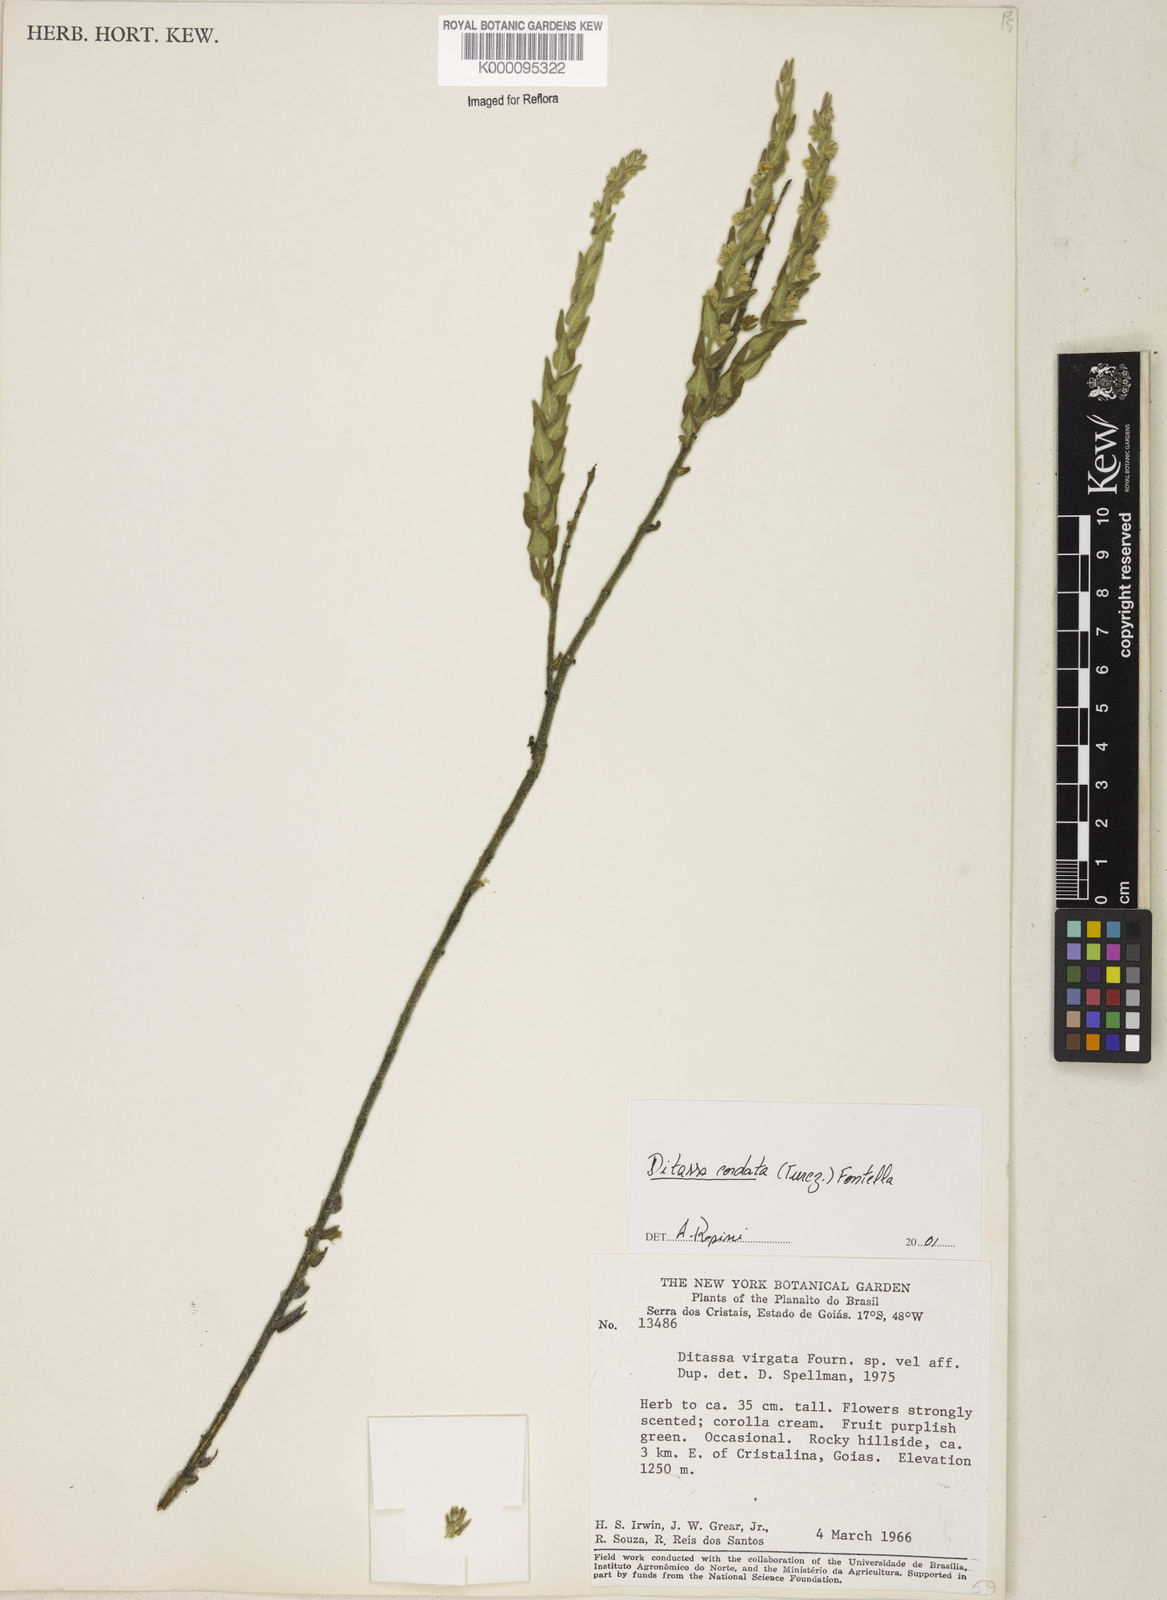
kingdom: Plantae
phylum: Tracheophyta
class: Magnoliopsida
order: Gentianales
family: Apocynaceae
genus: Minaria
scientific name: Minaria cordata
